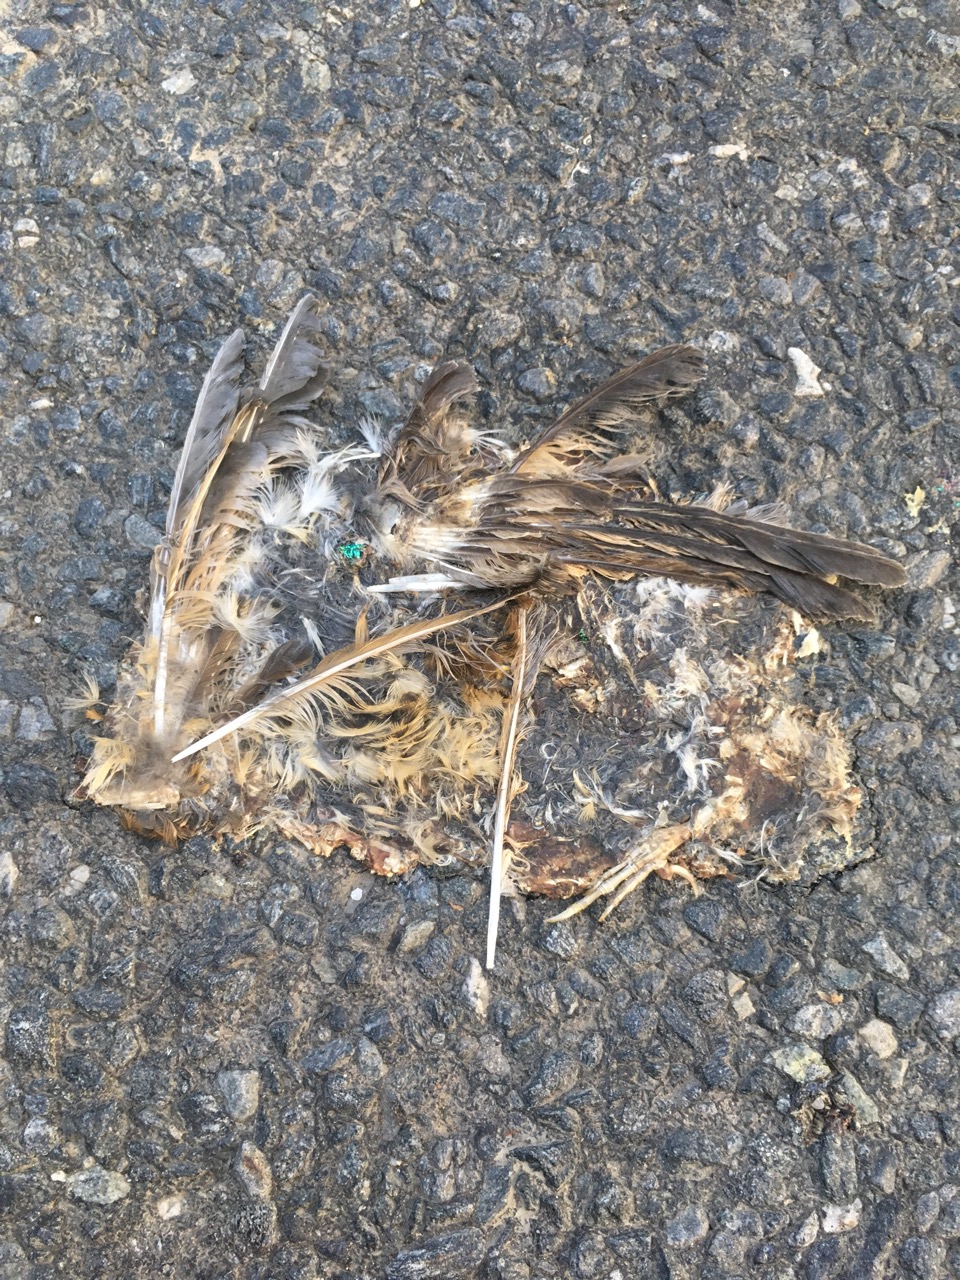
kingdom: Animalia
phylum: Chordata
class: Aves
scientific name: Aves
